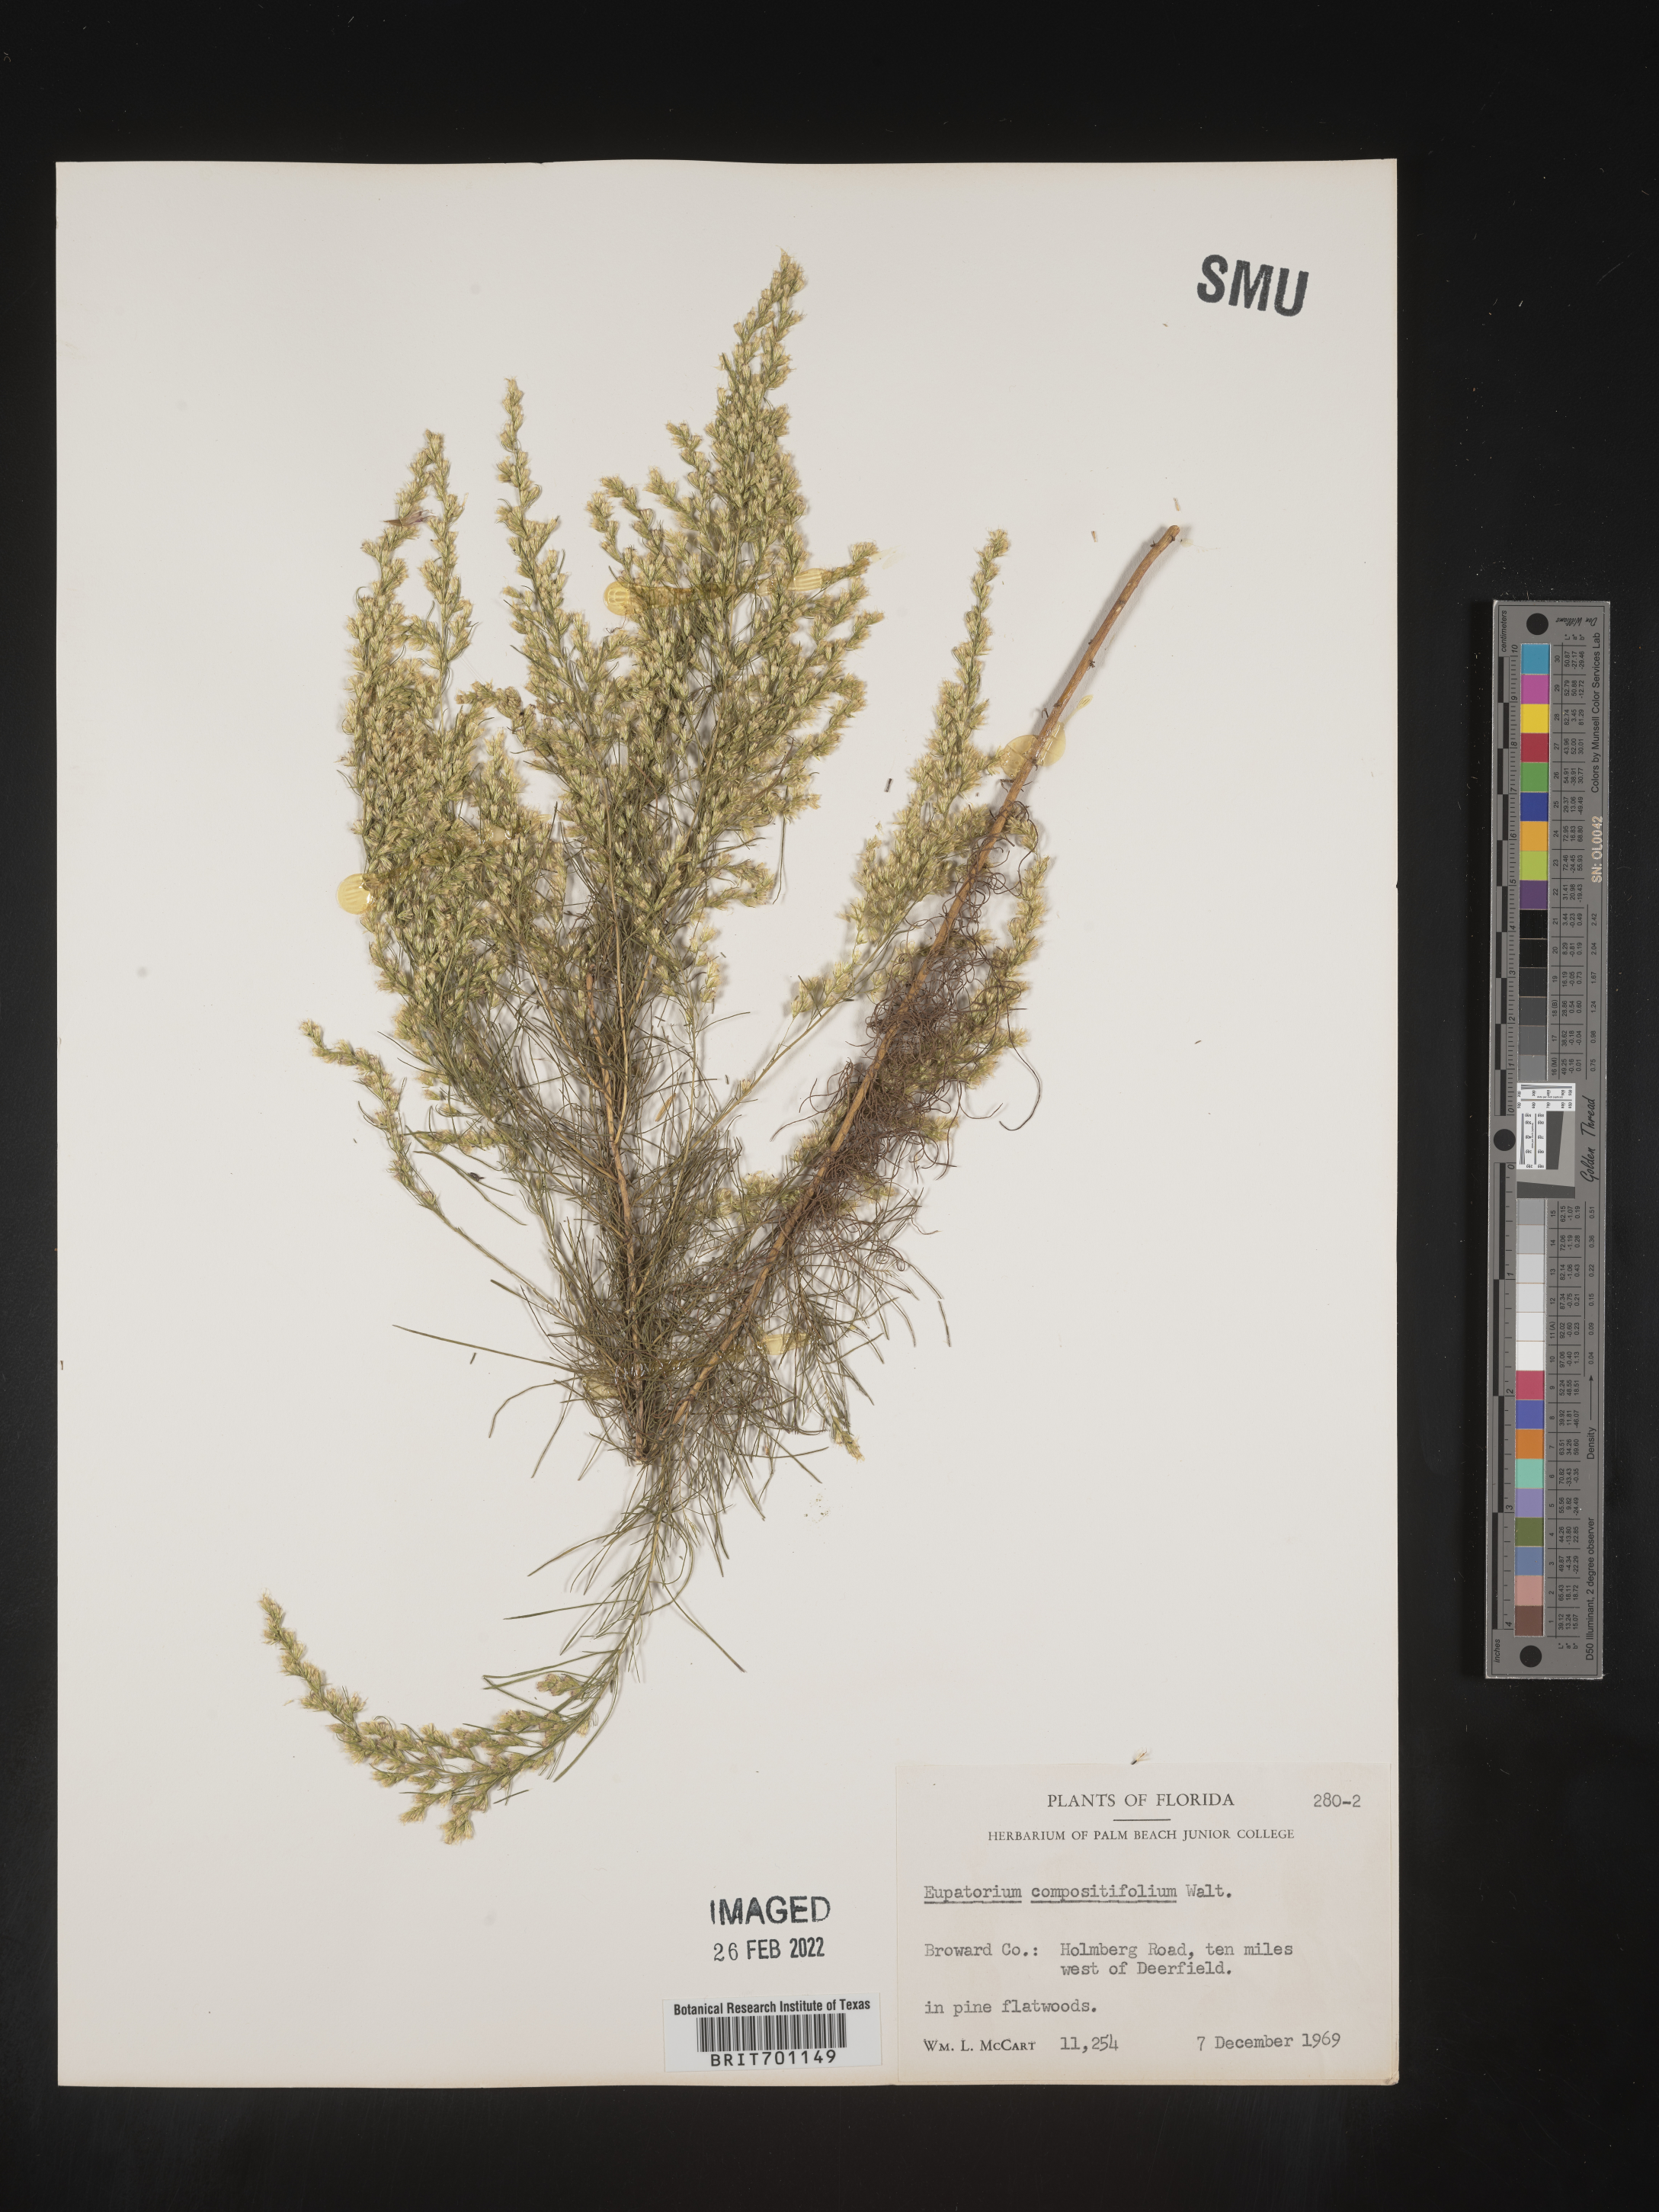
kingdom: Plantae
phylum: Tracheophyta
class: Magnoliopsida
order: Asterales
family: Asteraceae
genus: Eupatorium
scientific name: Eupatorium compositifolium
